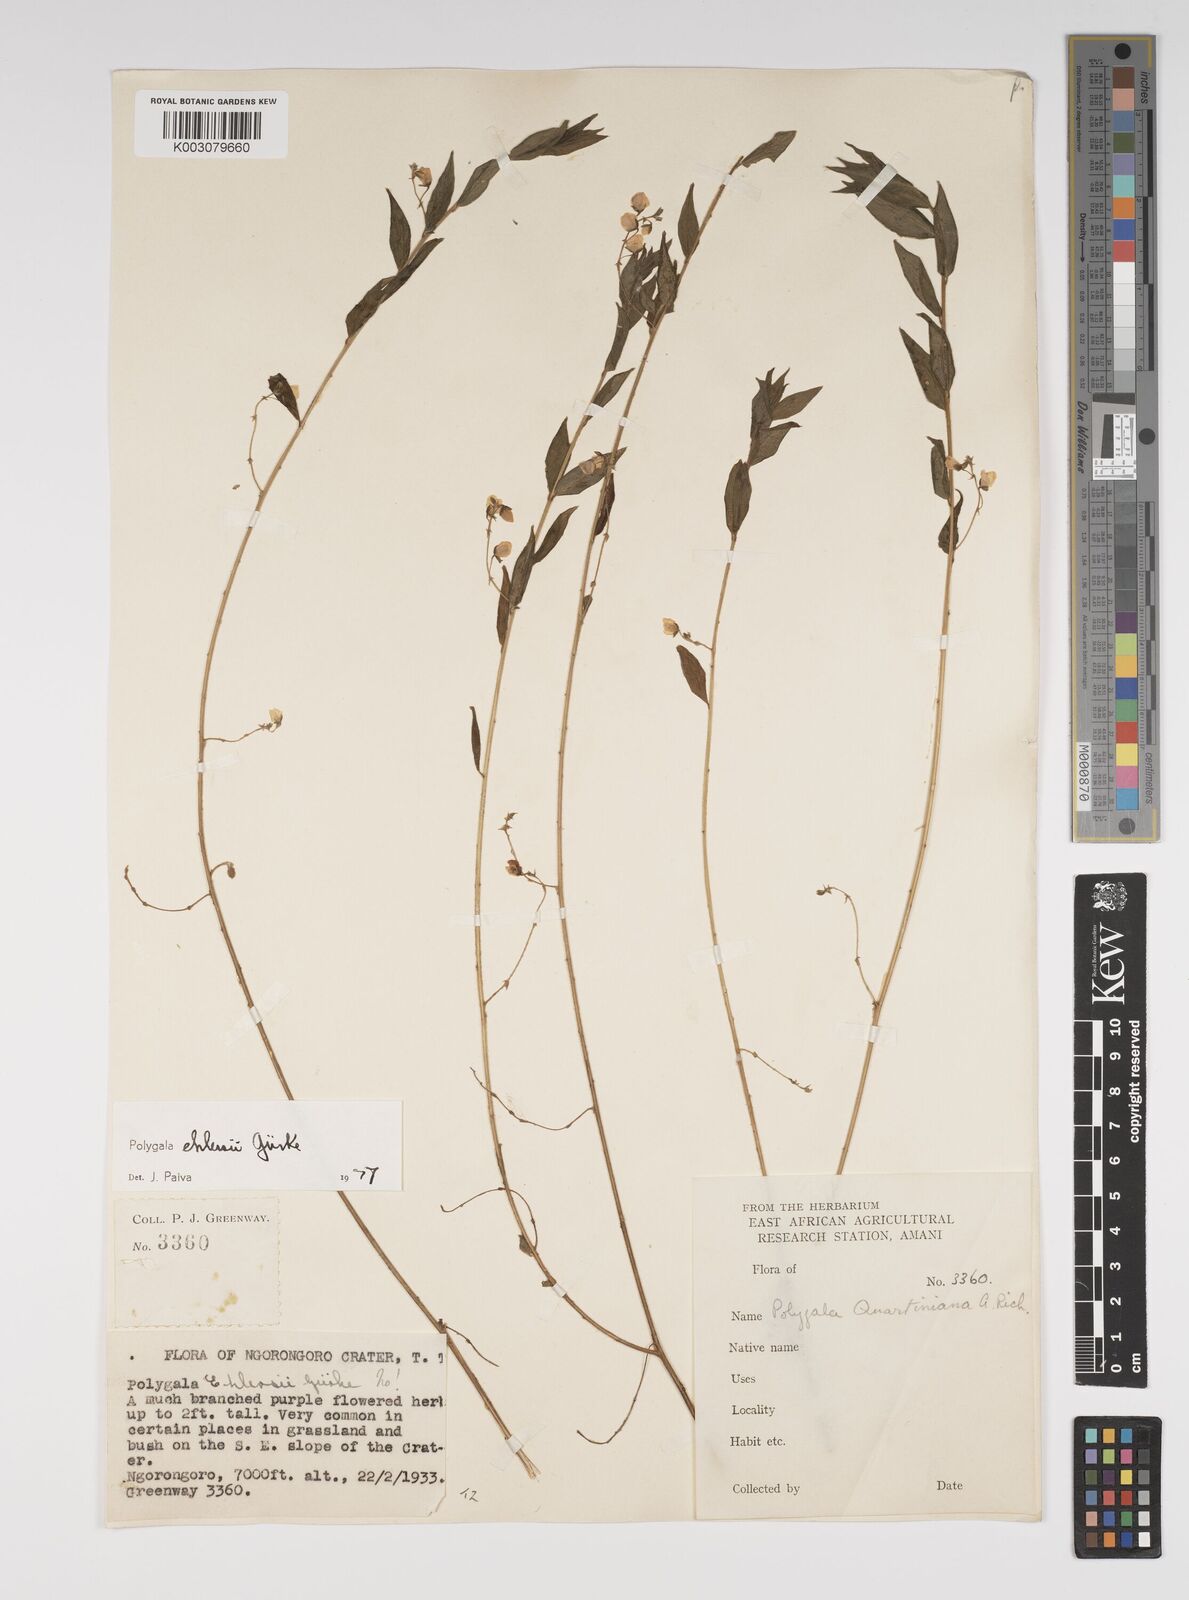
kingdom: Plantae
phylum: Tracheophyta
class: Magnoliopsida
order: Fabales
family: Polygalaceae
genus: Polygala
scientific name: Polygala ehlersii
